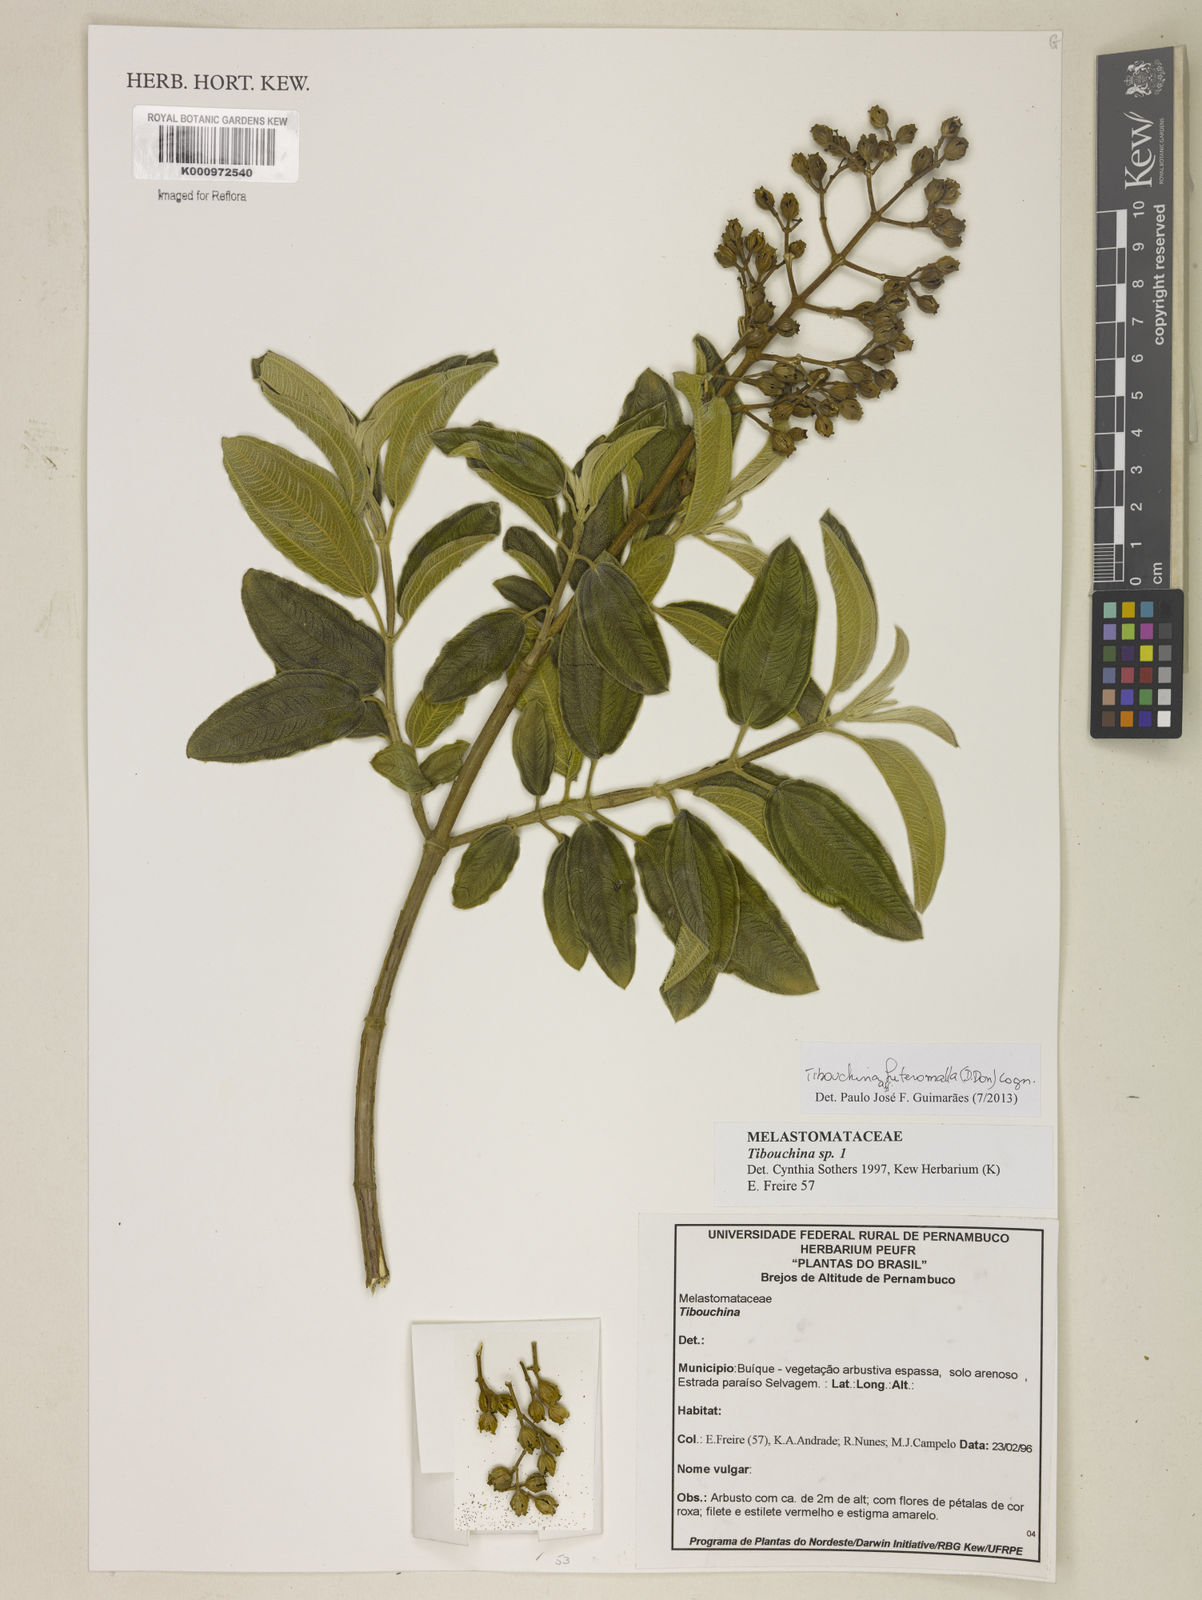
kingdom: Plantae
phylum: Tracheophyta
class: Magnoliopsida
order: Myrtales
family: Melastomataceae
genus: Pleroma
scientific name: Pleroma heteromallum
